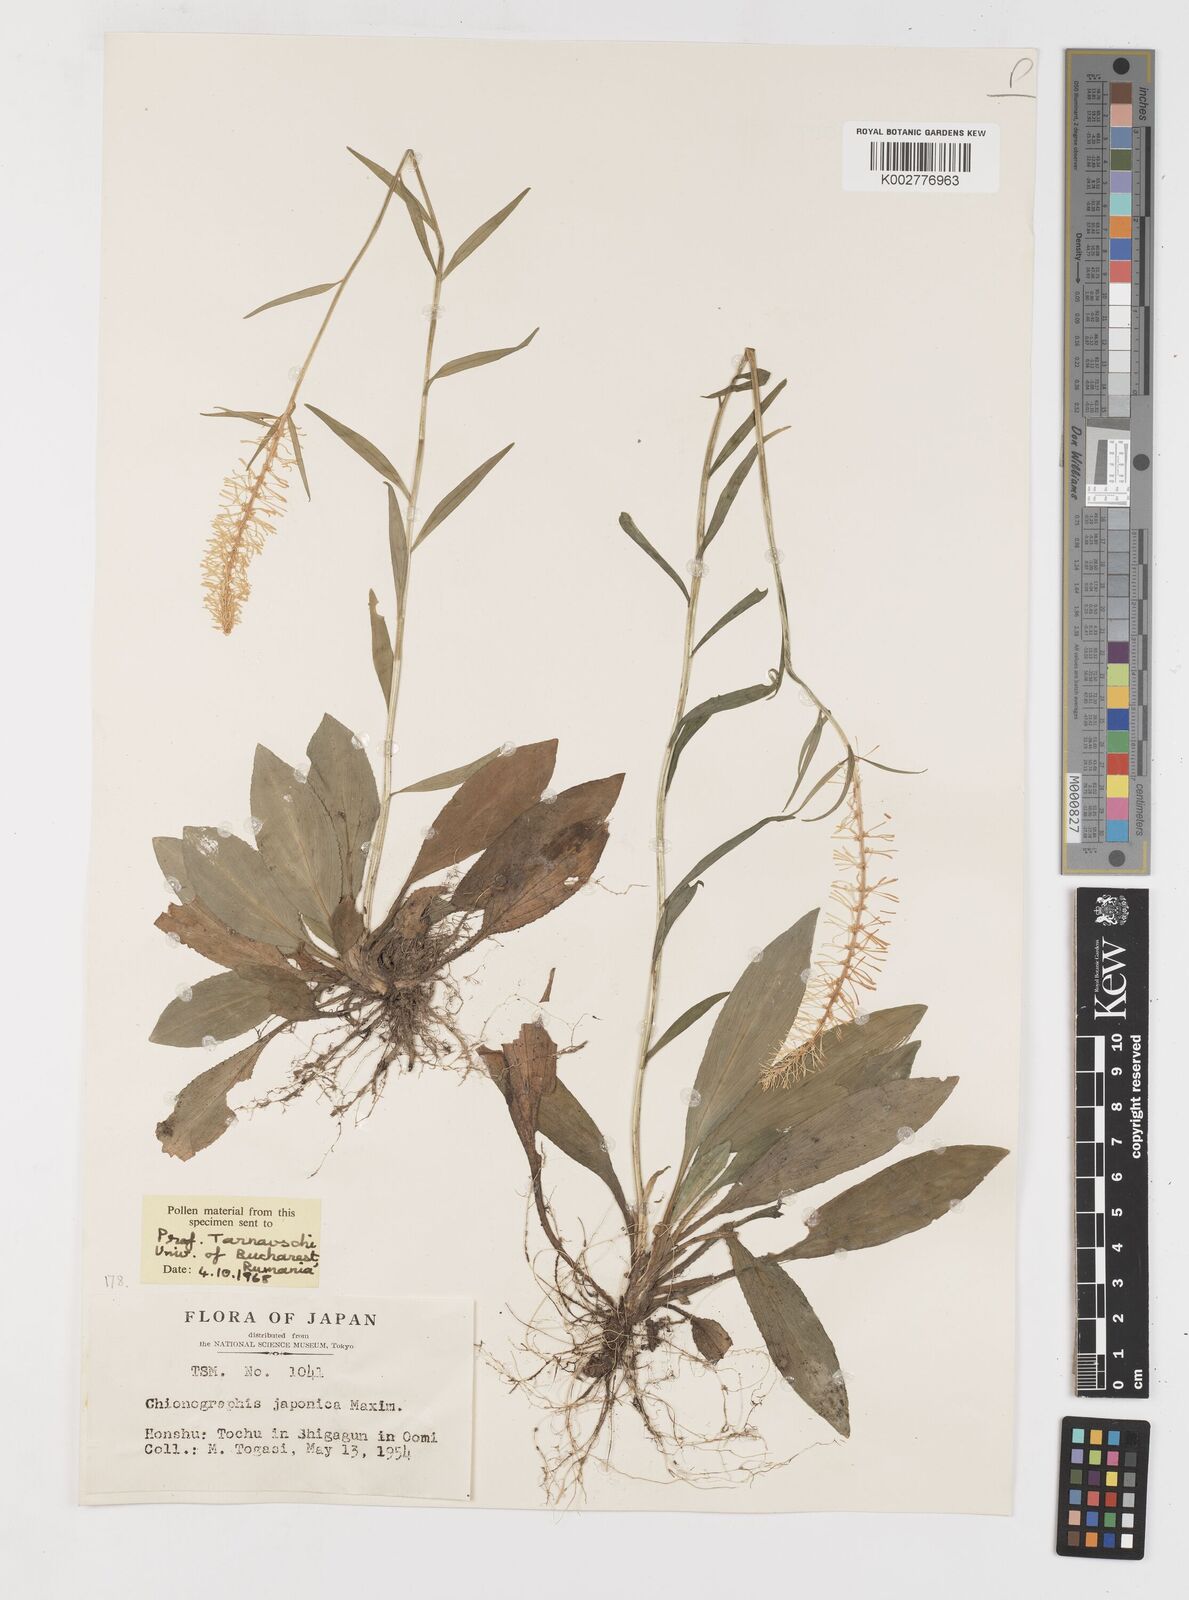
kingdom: Plantae
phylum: Tracheophyta
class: Liliopsida
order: Liliales
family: Melanthiaceae
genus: Chamaelirium
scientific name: Chamaelirium japonicum
